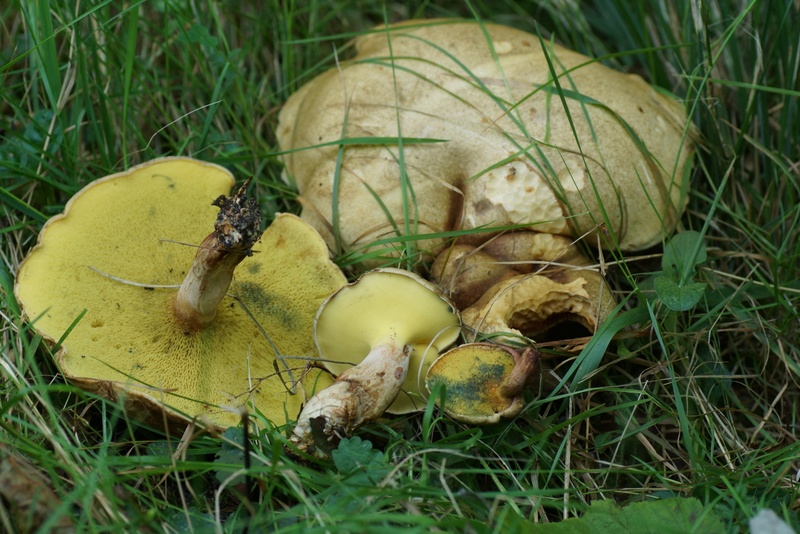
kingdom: Fungi
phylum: Basidiomycota
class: Agaricomycetes
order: Boletales
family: Paxillaceae
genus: Gyrodon
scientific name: Gyrodon lividus
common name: ellerørhat
